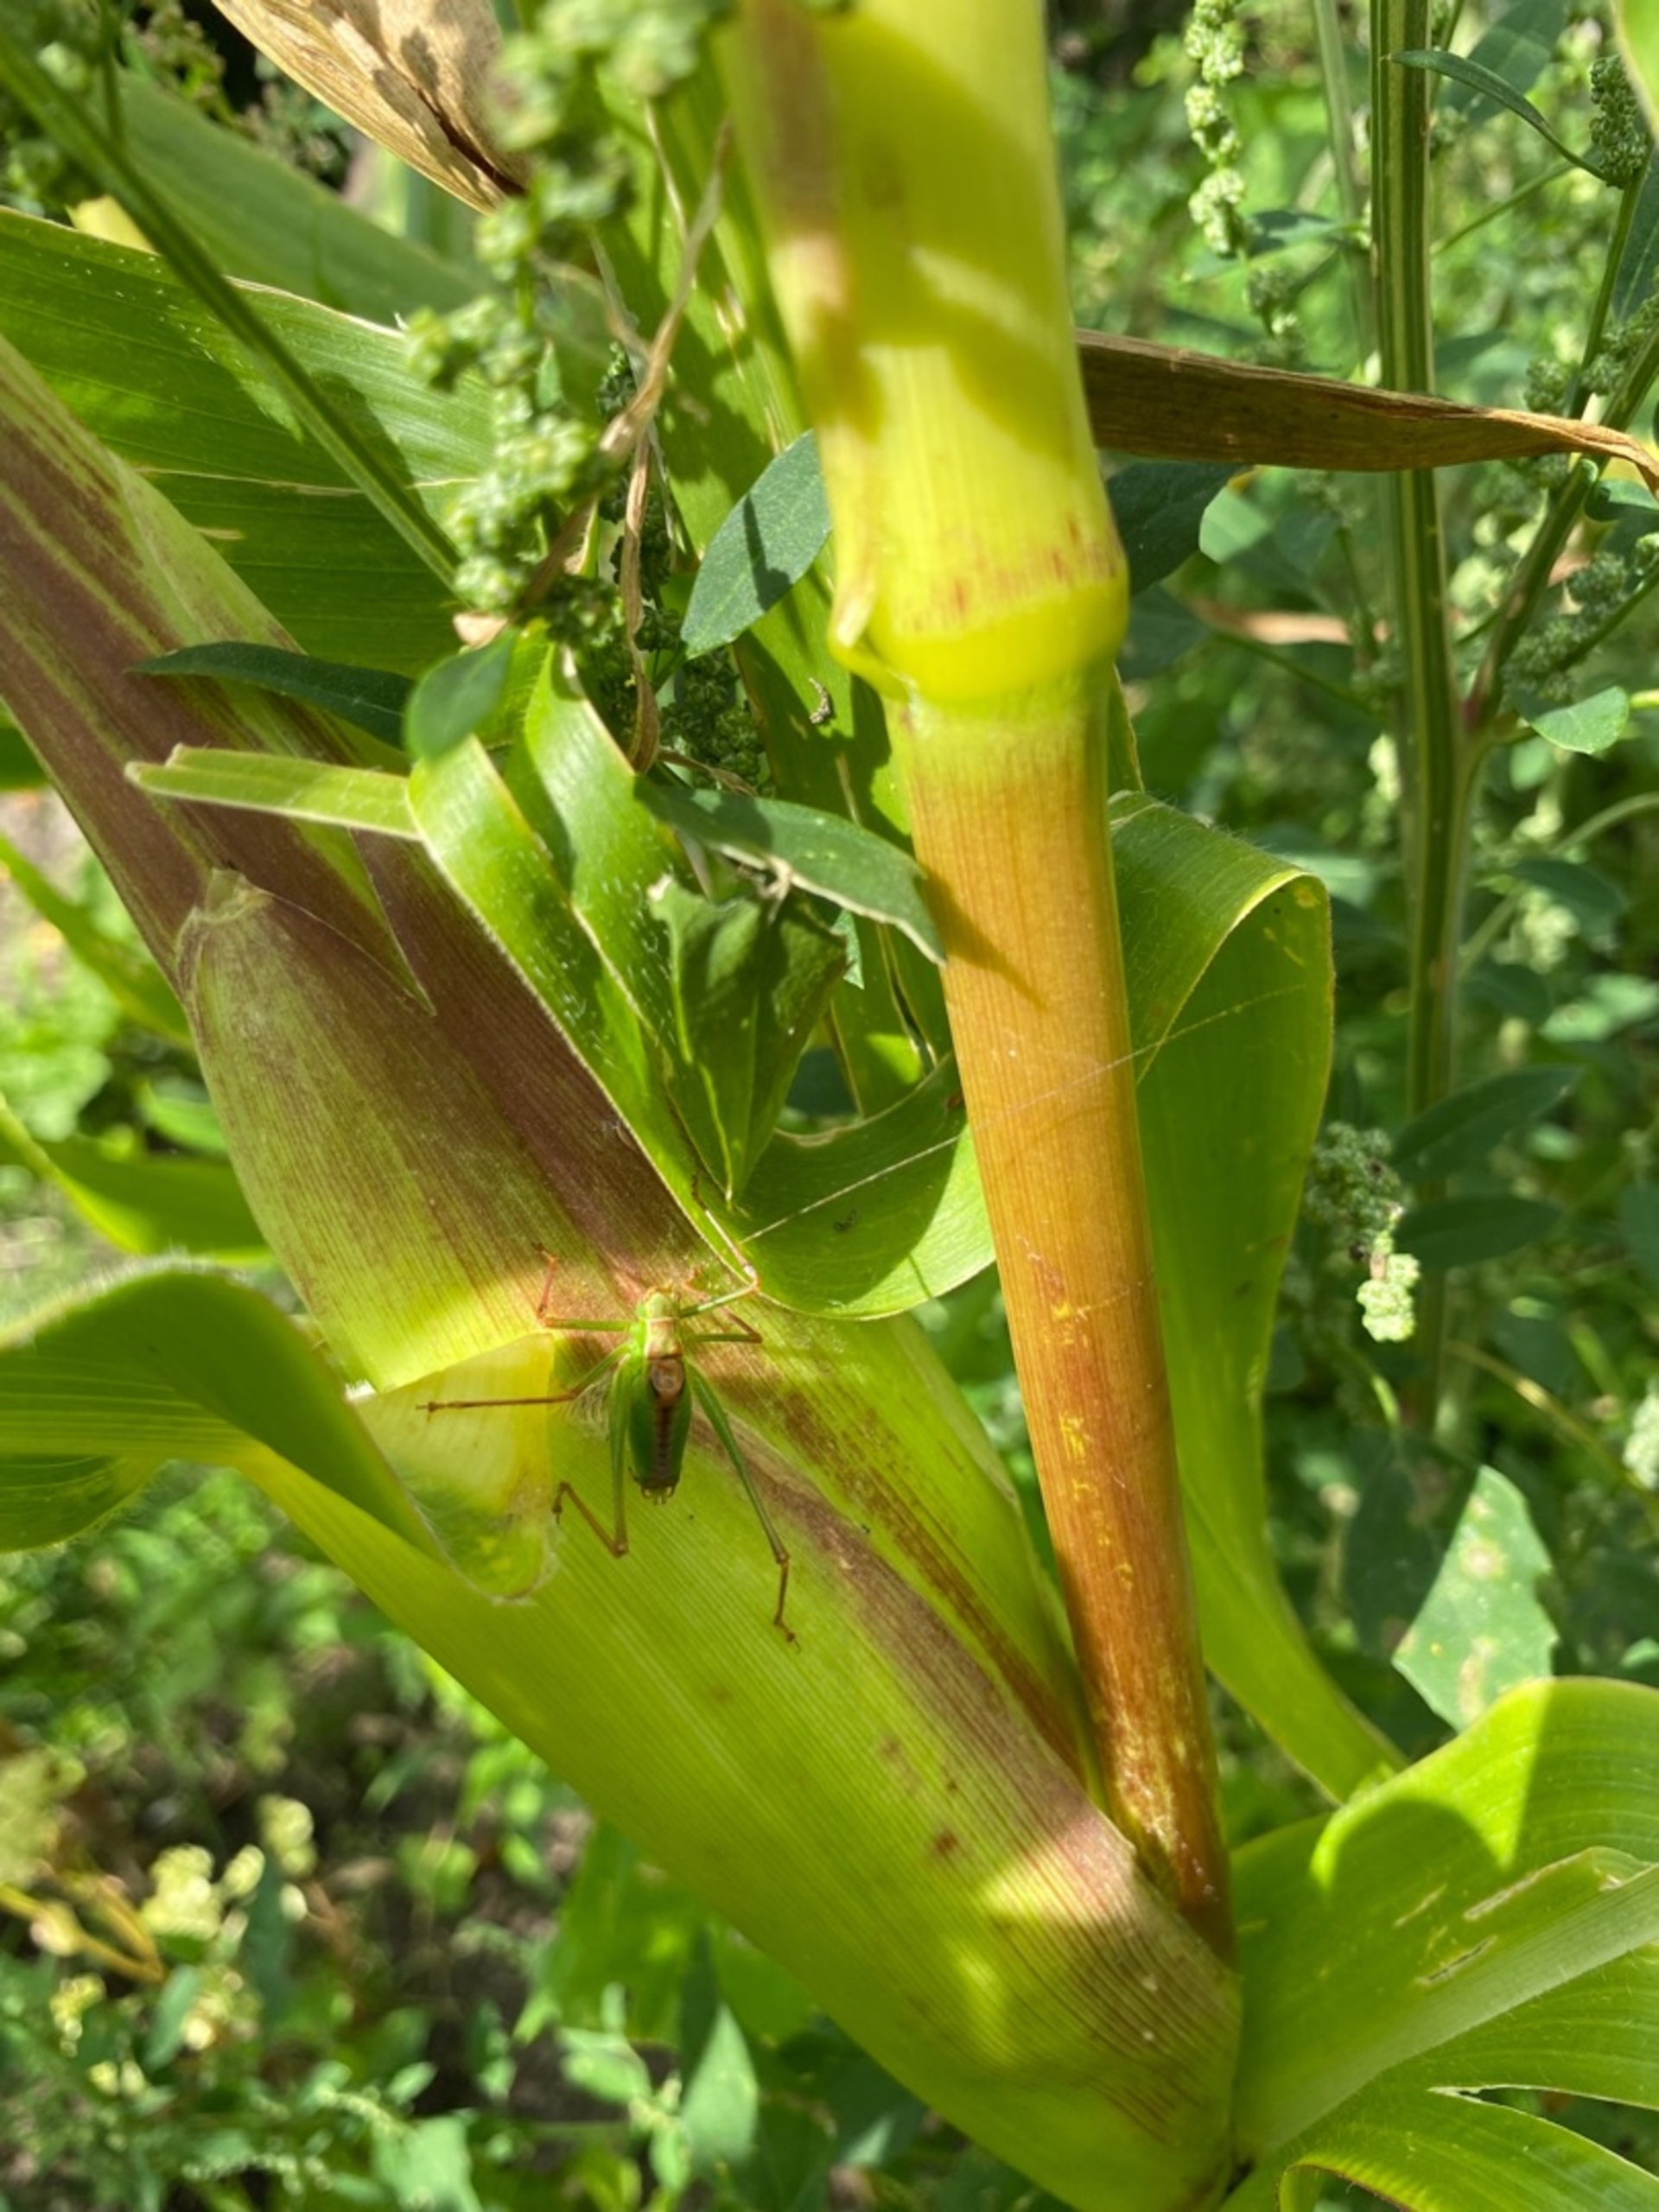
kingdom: Animalia
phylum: Arthropoda
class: Insecta
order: Orthoptera
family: Tettigoniidae
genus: Leptophyes
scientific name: Leptophyes punctatissima
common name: Krumknivgræshoppe
